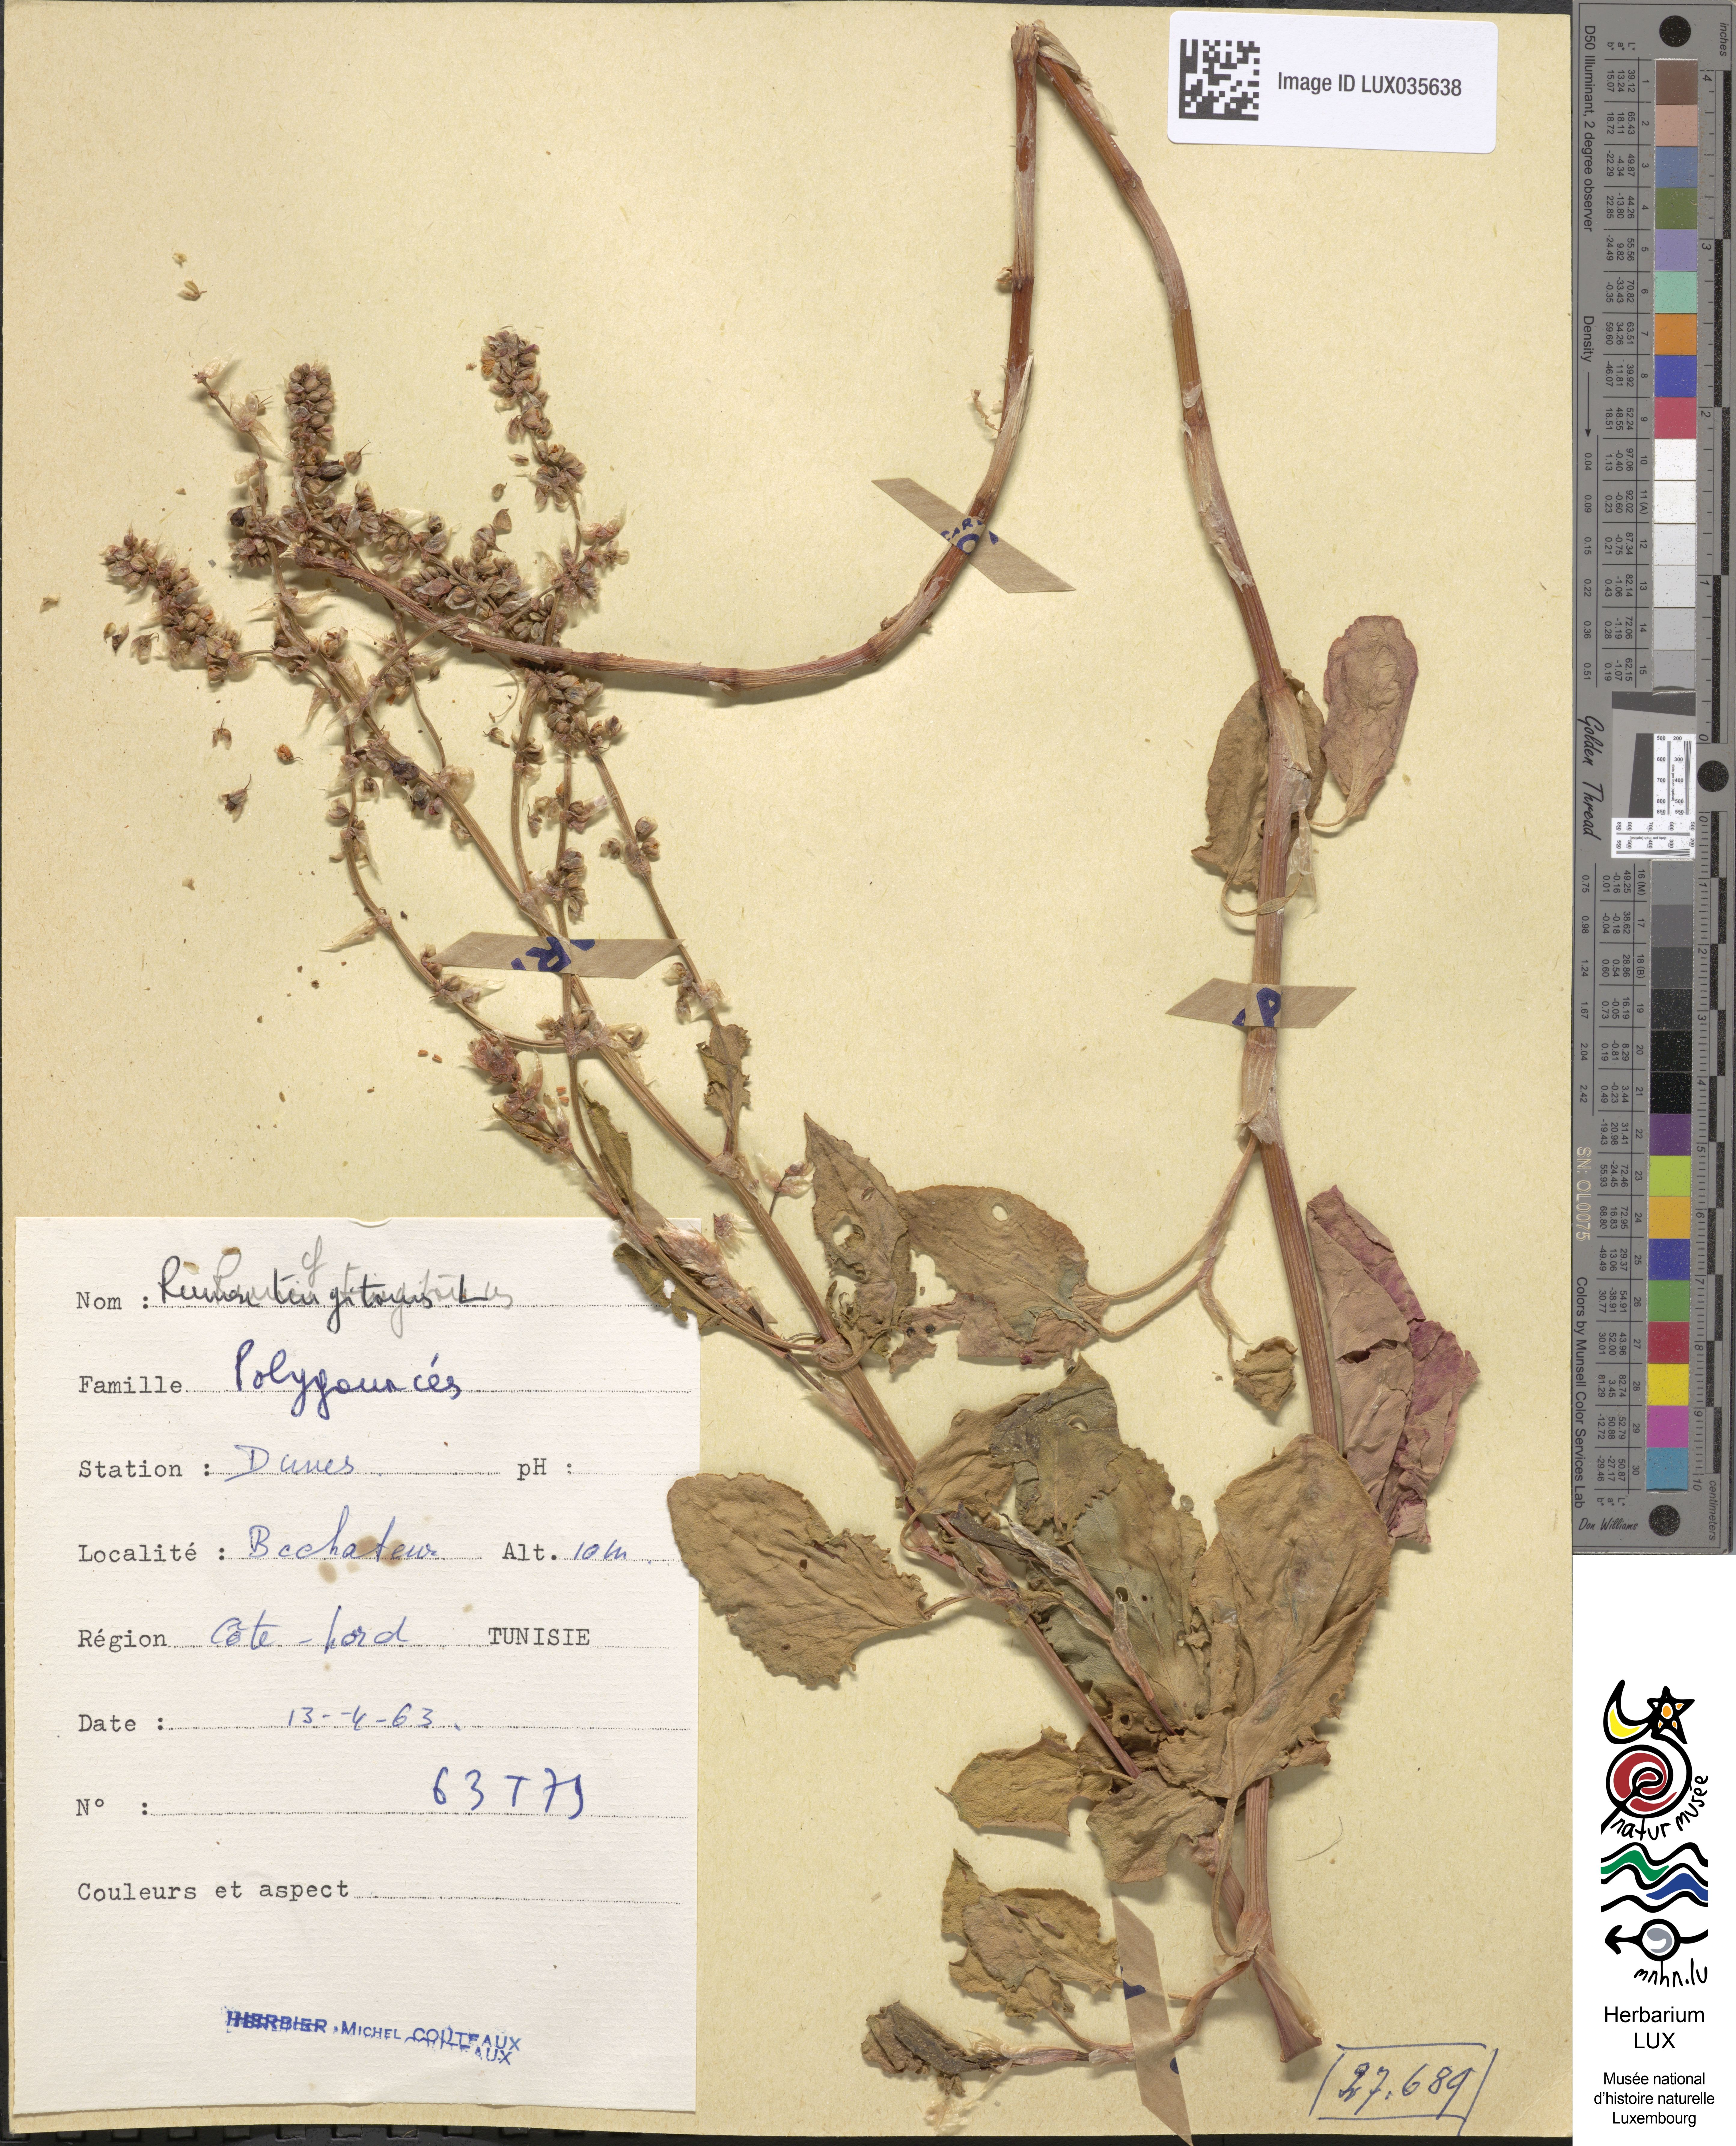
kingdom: Plantae
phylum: Tracheophyta
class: Magnoliopsida
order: Caryophyllales
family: Polygonaceae
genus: Rumex
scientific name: Rumex roseus
